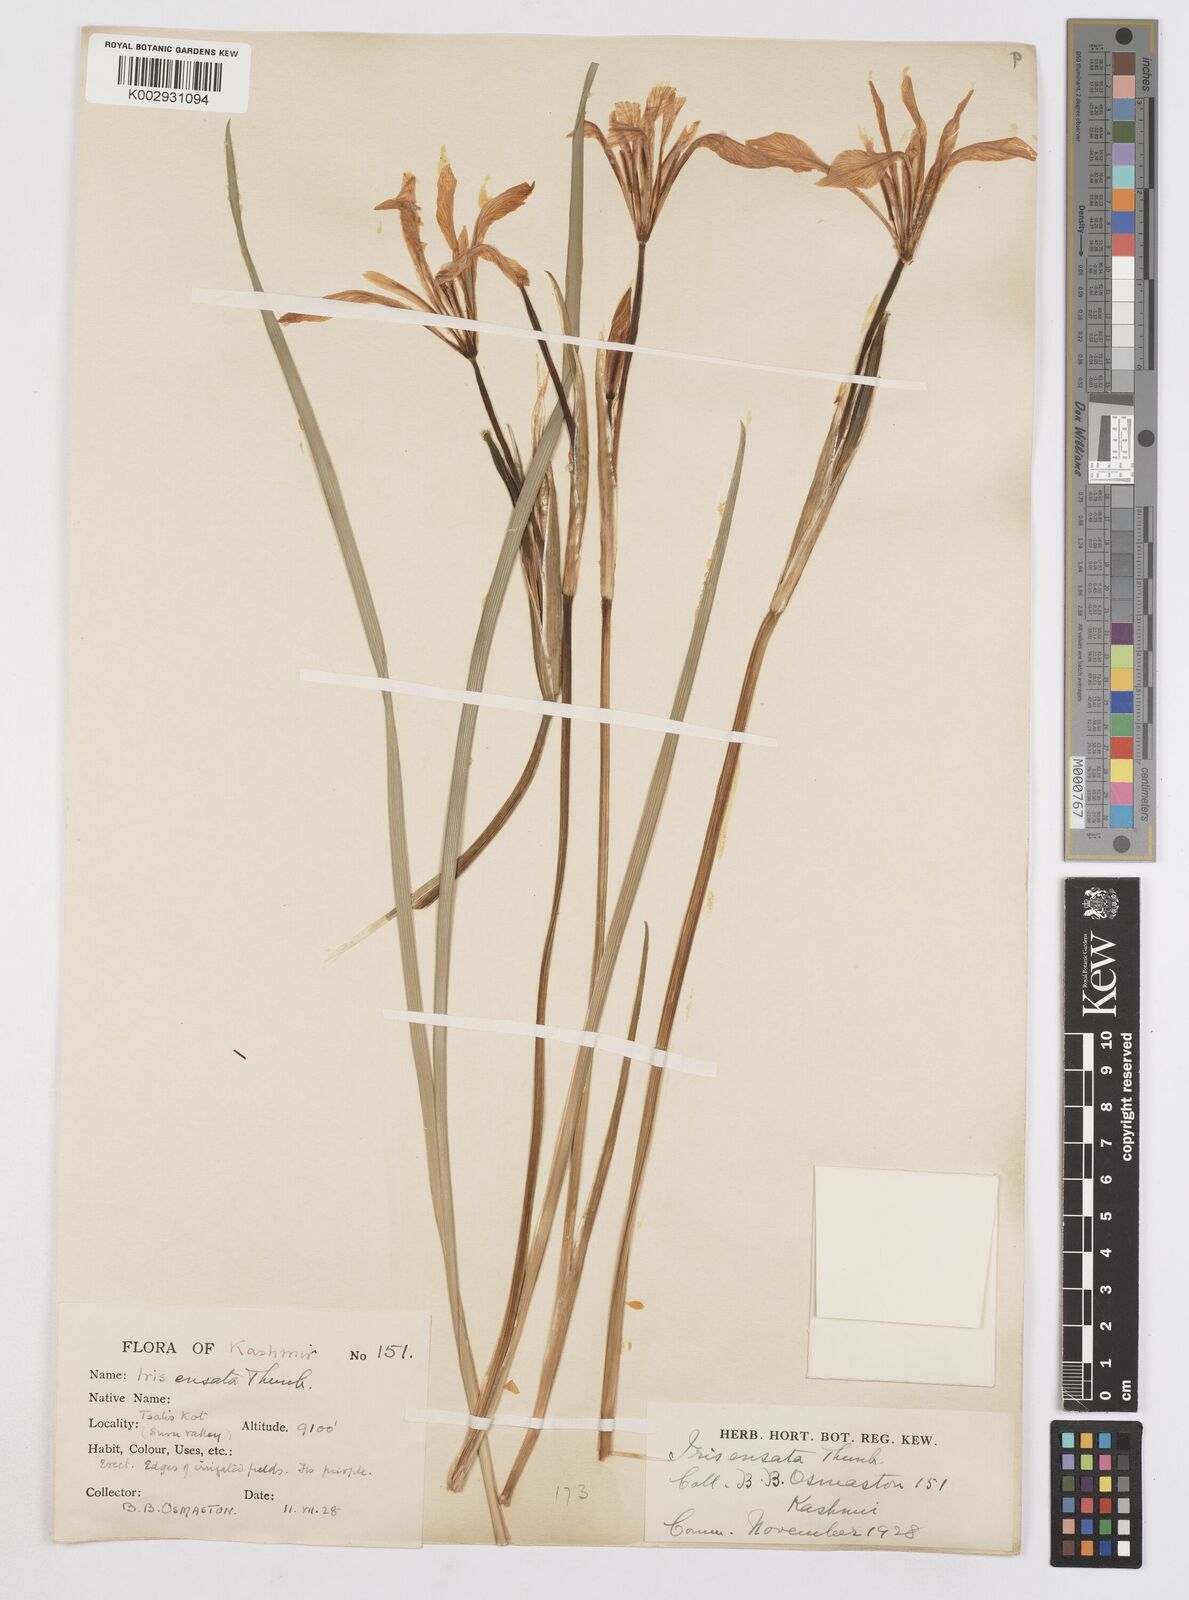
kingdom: Plantae
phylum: Tracheophyta
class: Liliopsida
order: Asparagales
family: Iridaceae
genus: Iris
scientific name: Iris ensata
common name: Beaked iris
